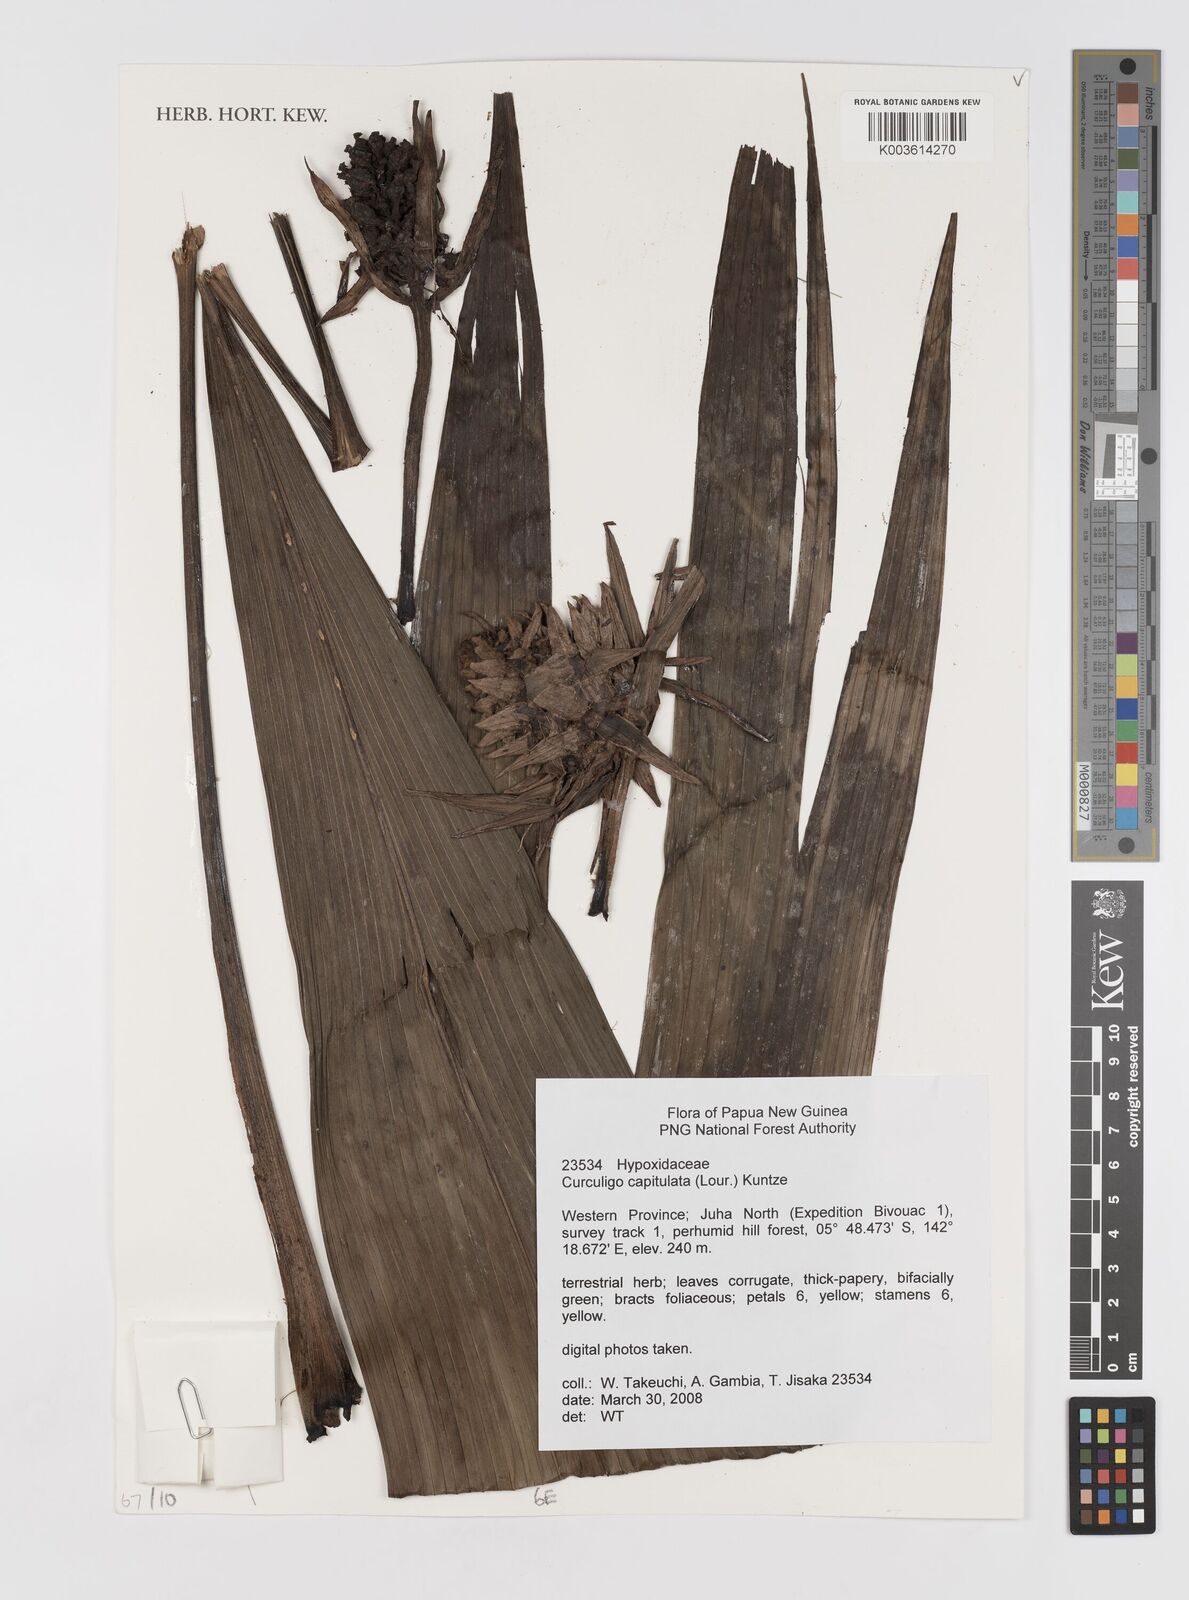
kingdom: Plantae
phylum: Tracheophyta
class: Liliopsida
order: Asparagales
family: Hypoxidaceae
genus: Curculigo
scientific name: Curculigo capitulata
